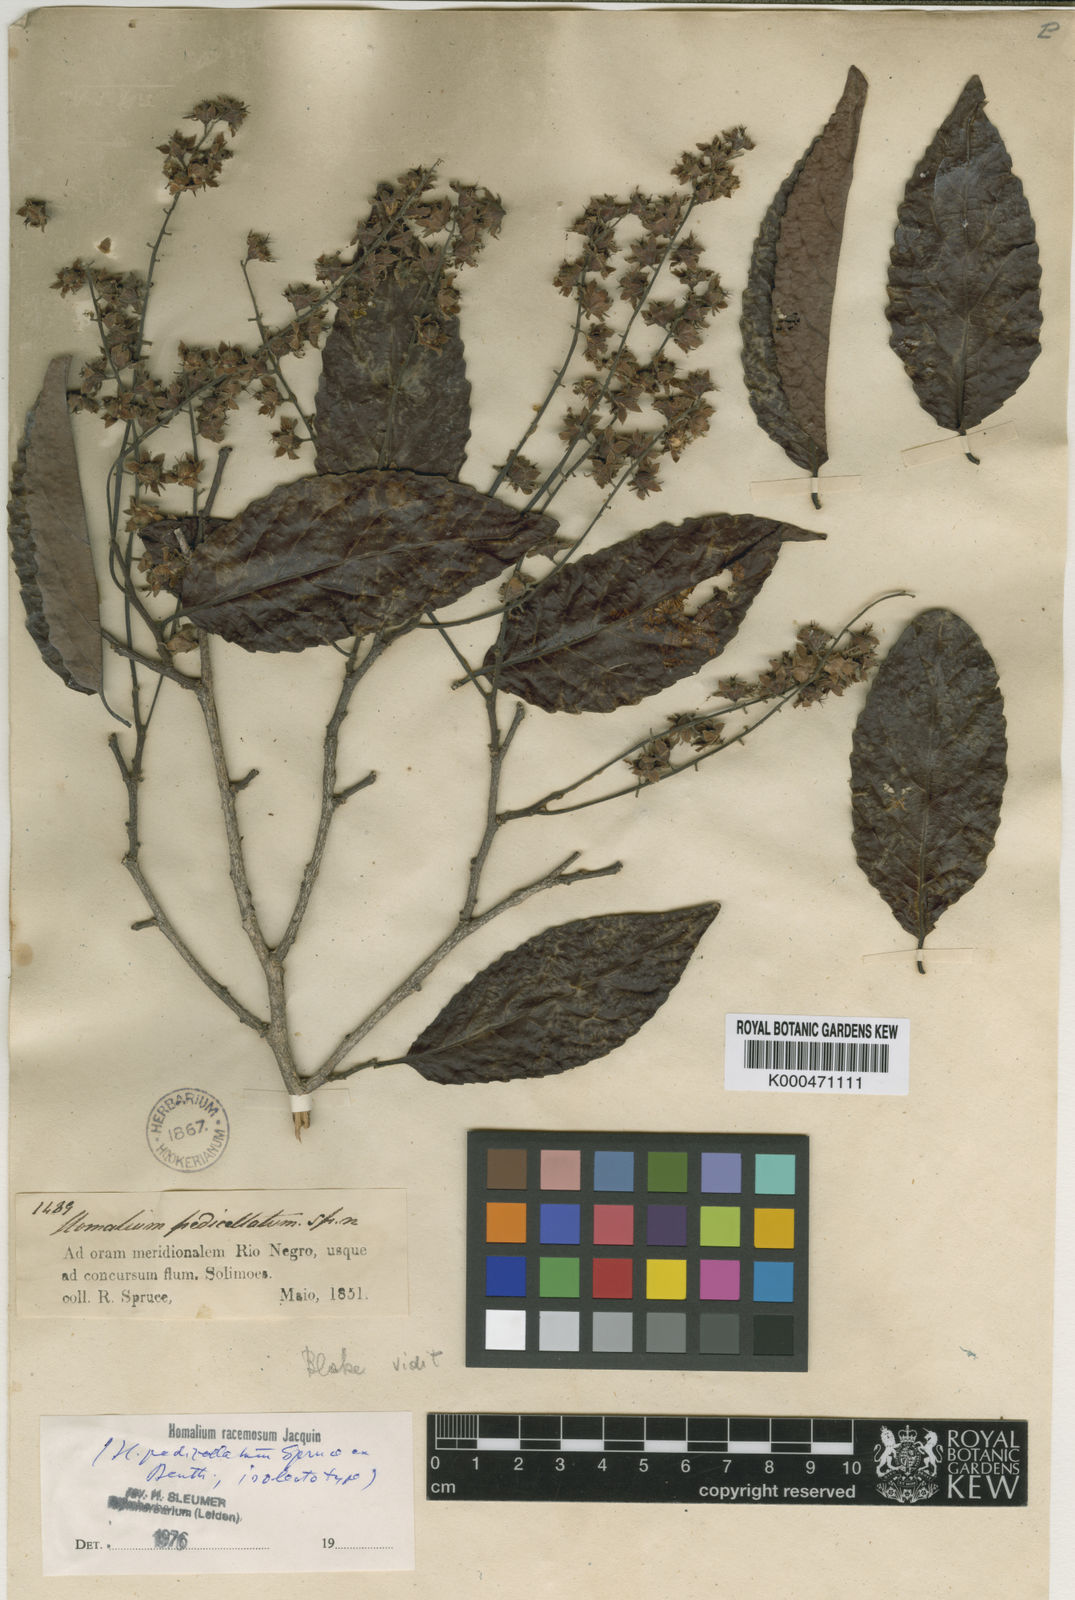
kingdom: Plantae
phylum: Tracheophyta
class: Magnoliopsida
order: Malpighiales
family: Salicaceae
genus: Homalium
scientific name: Homalium racemosum
